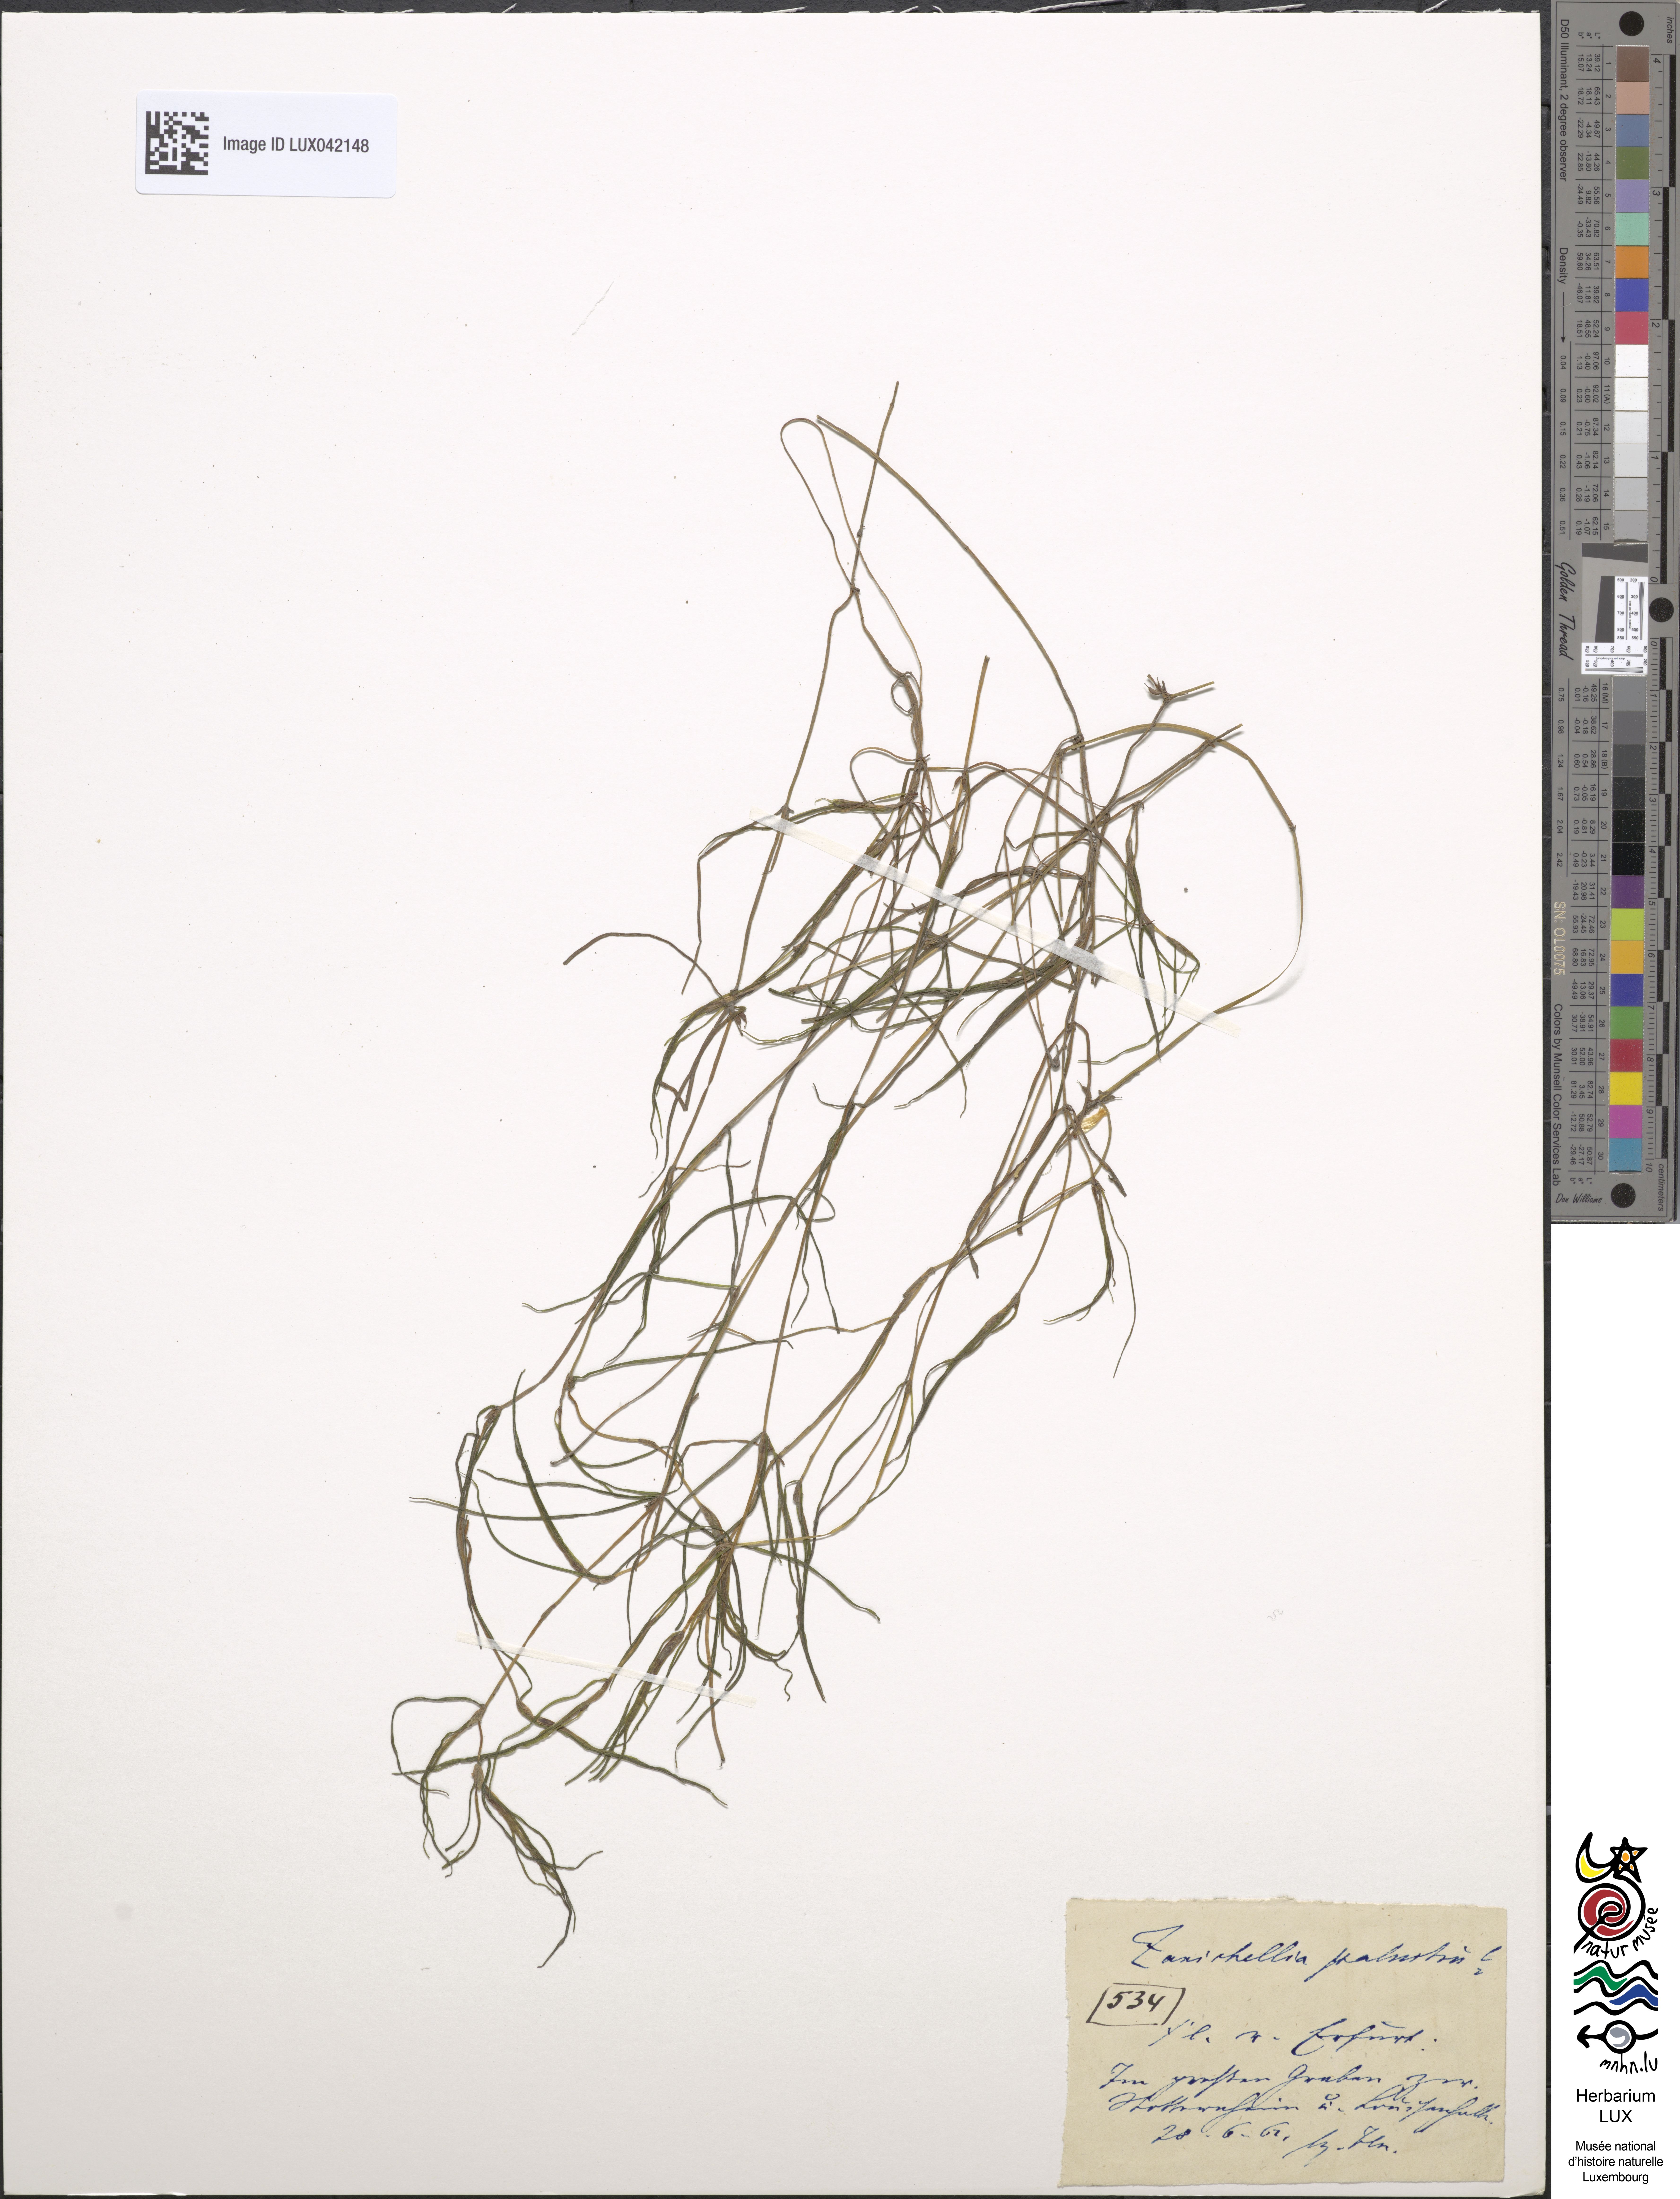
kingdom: Plantae
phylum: Tracheophyta
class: Liliopsida
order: Alismatales
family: Potamogetonaceae
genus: Zannichellia
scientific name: Zannichellia palustris
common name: Horned pondweed
